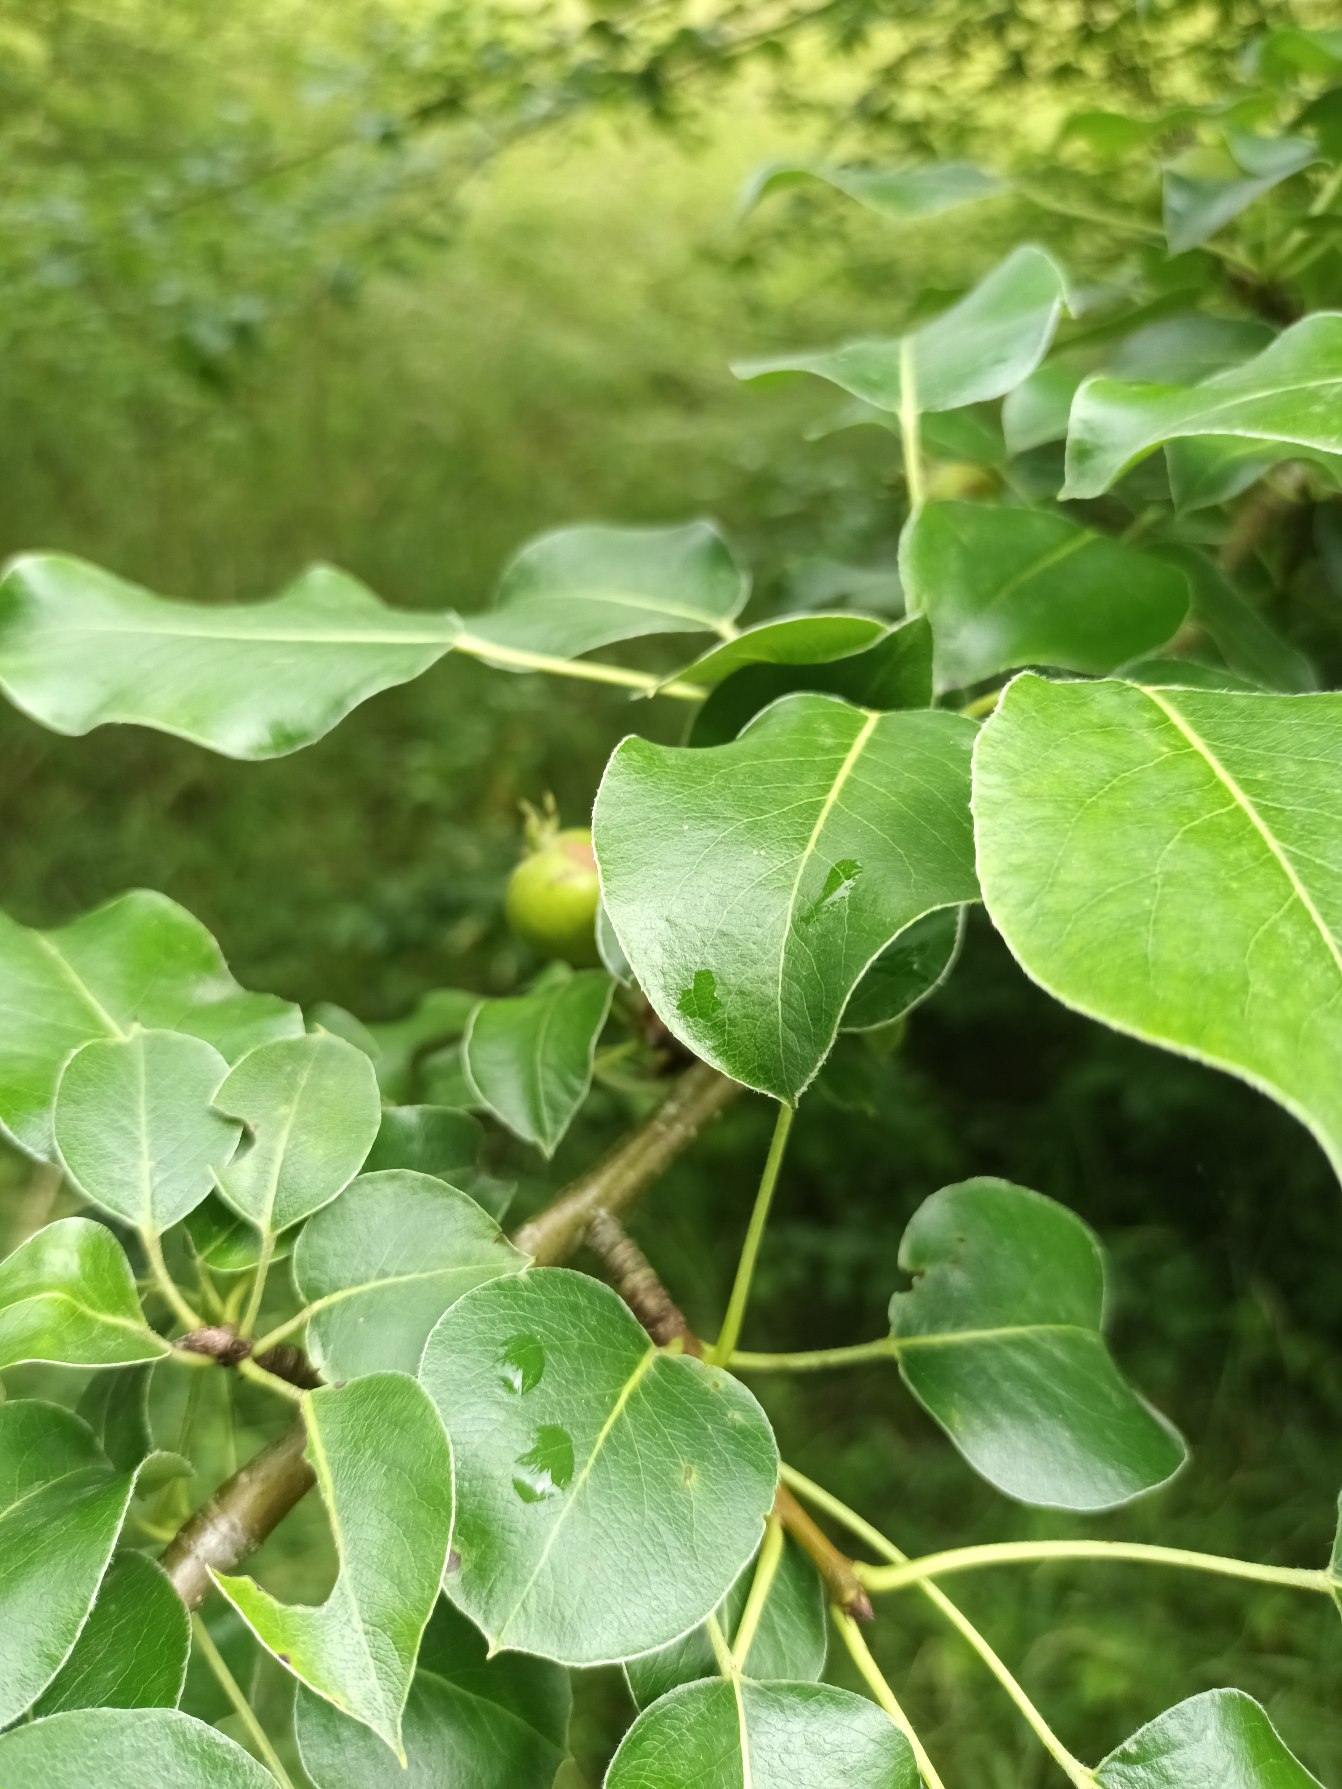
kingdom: Plantae
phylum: Tracheophyta
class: Magnoliopsida
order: Rosales
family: Rosaceae
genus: Pyrus
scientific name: Pyrus communis
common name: Pære
